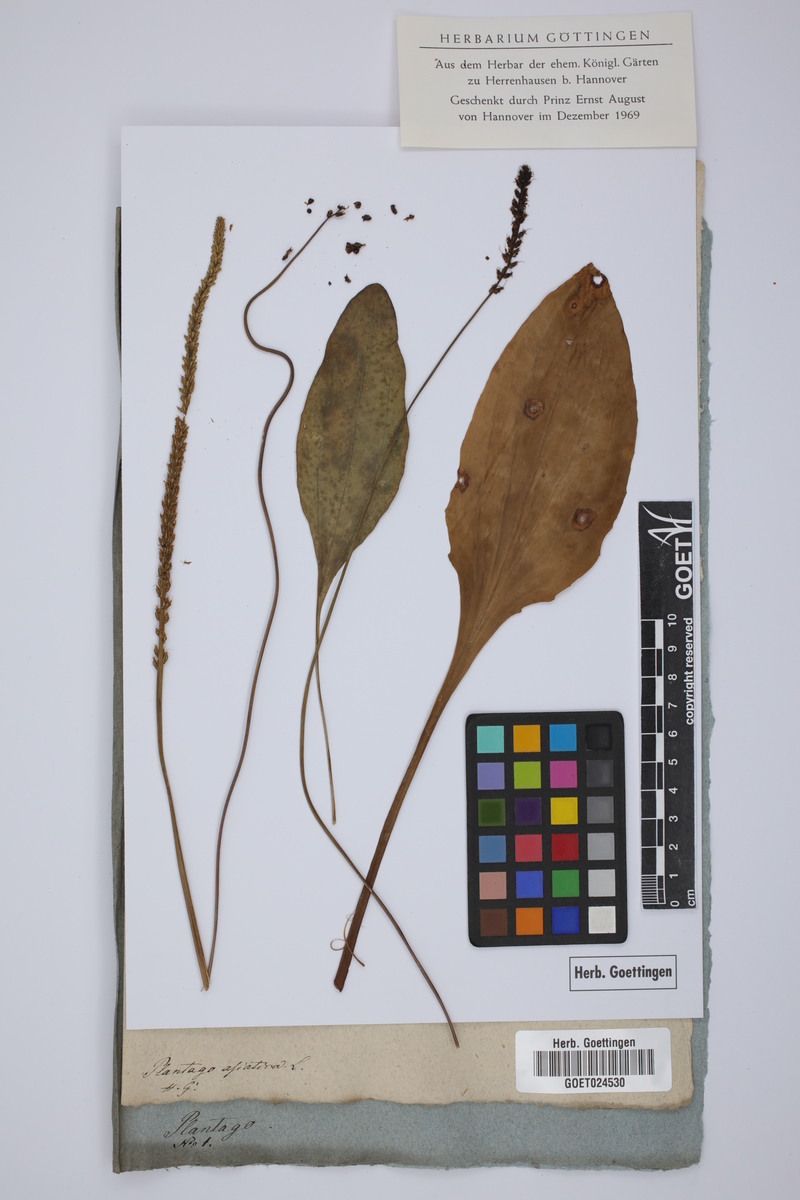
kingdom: Plantae
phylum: Tracheophyta
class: Magnoliopsida
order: Lamiales
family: Plantaginaceae
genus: Plantago
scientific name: Plantago asiatica
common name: Psyllium
